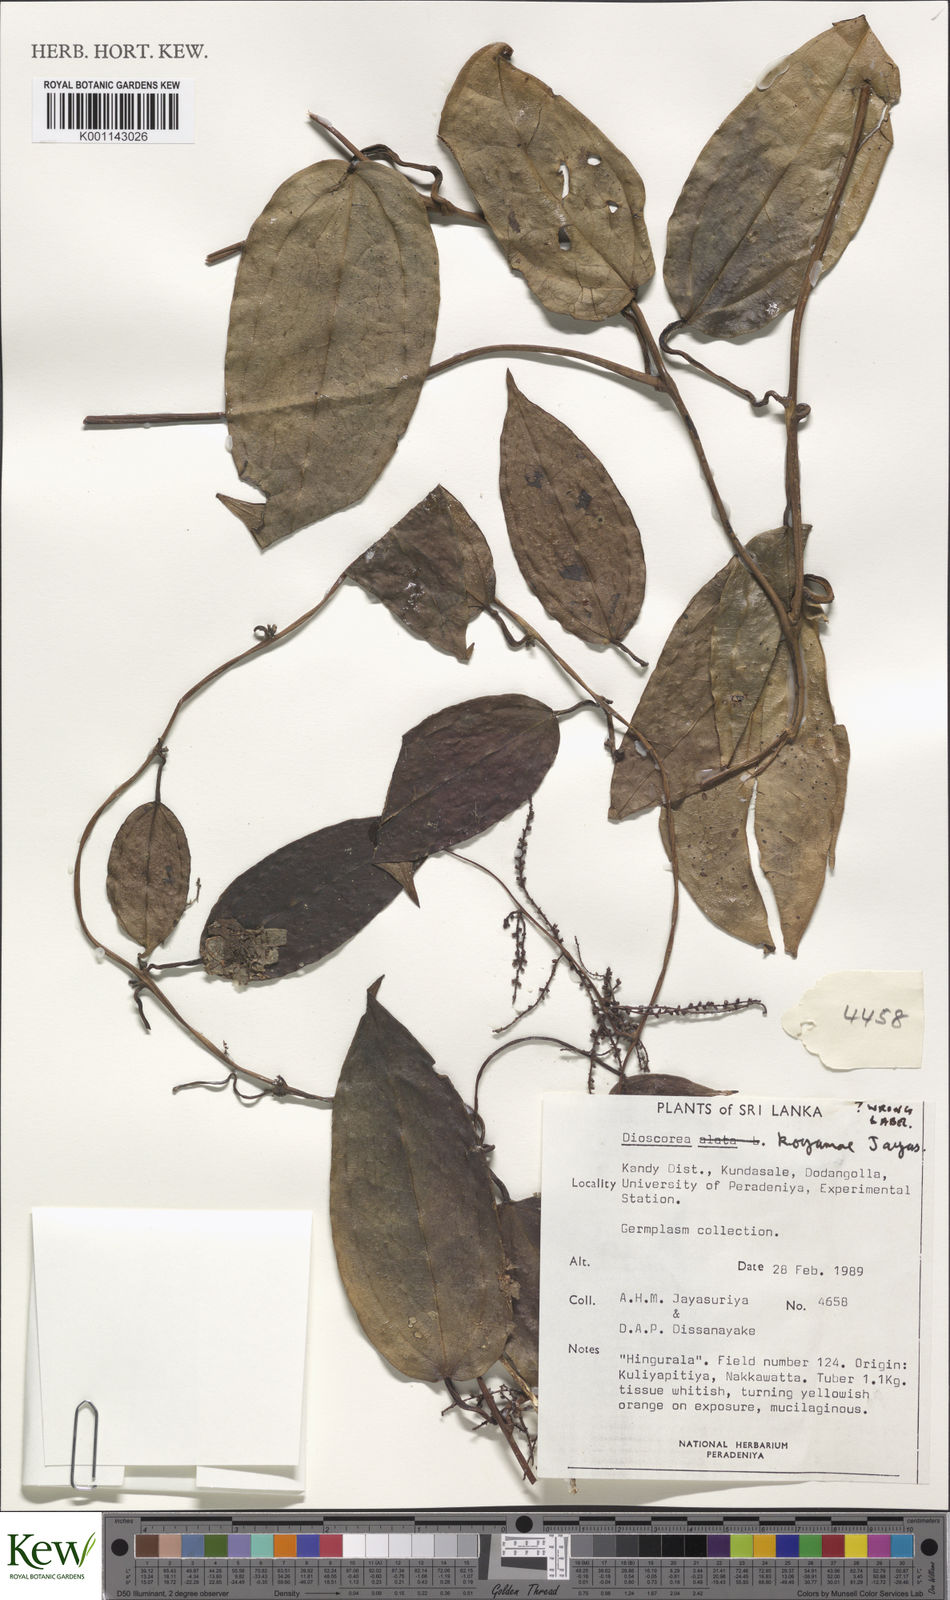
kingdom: Plantae
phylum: Tracheophyta
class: Liliopsida
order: Dioscoreales
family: Dioscoreaceae
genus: Dioscorea
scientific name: Dioscorea koyamae
